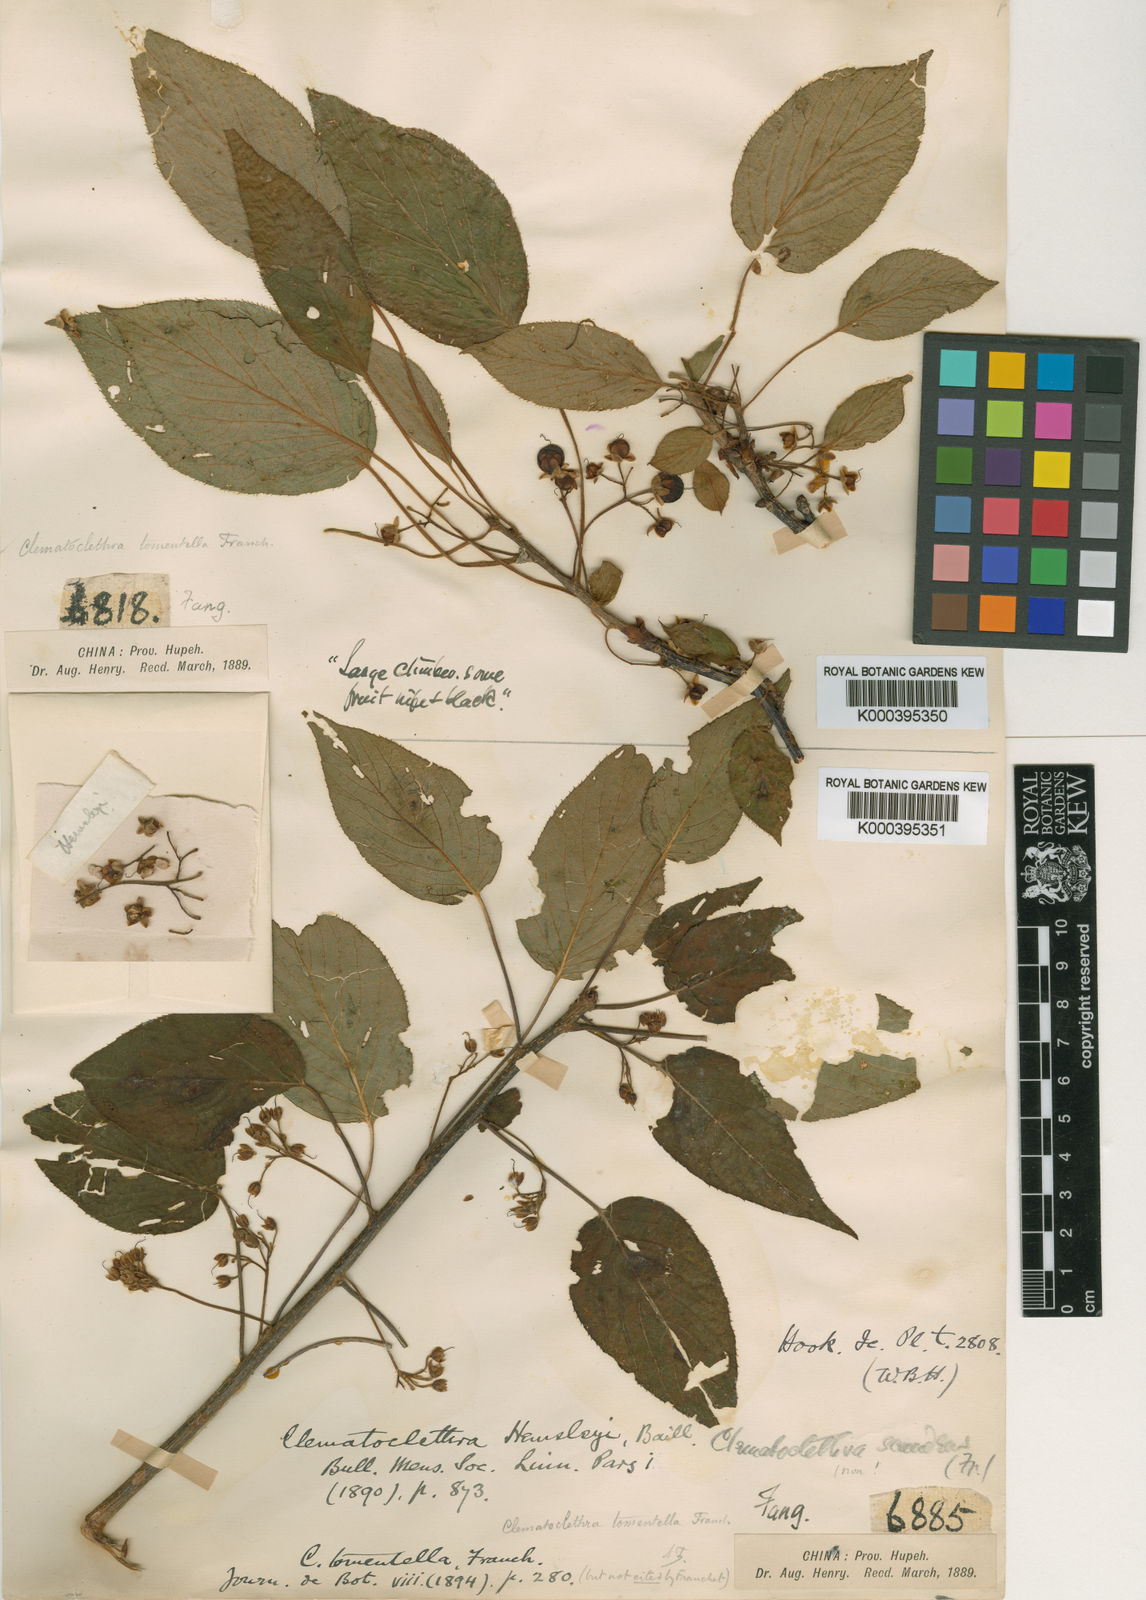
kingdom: Plantae
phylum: Tracheophyta
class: Magnoliopsida
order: Ericales
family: Actinidiaceae
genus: Clematoclethra
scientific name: Clematoclethra scandens
